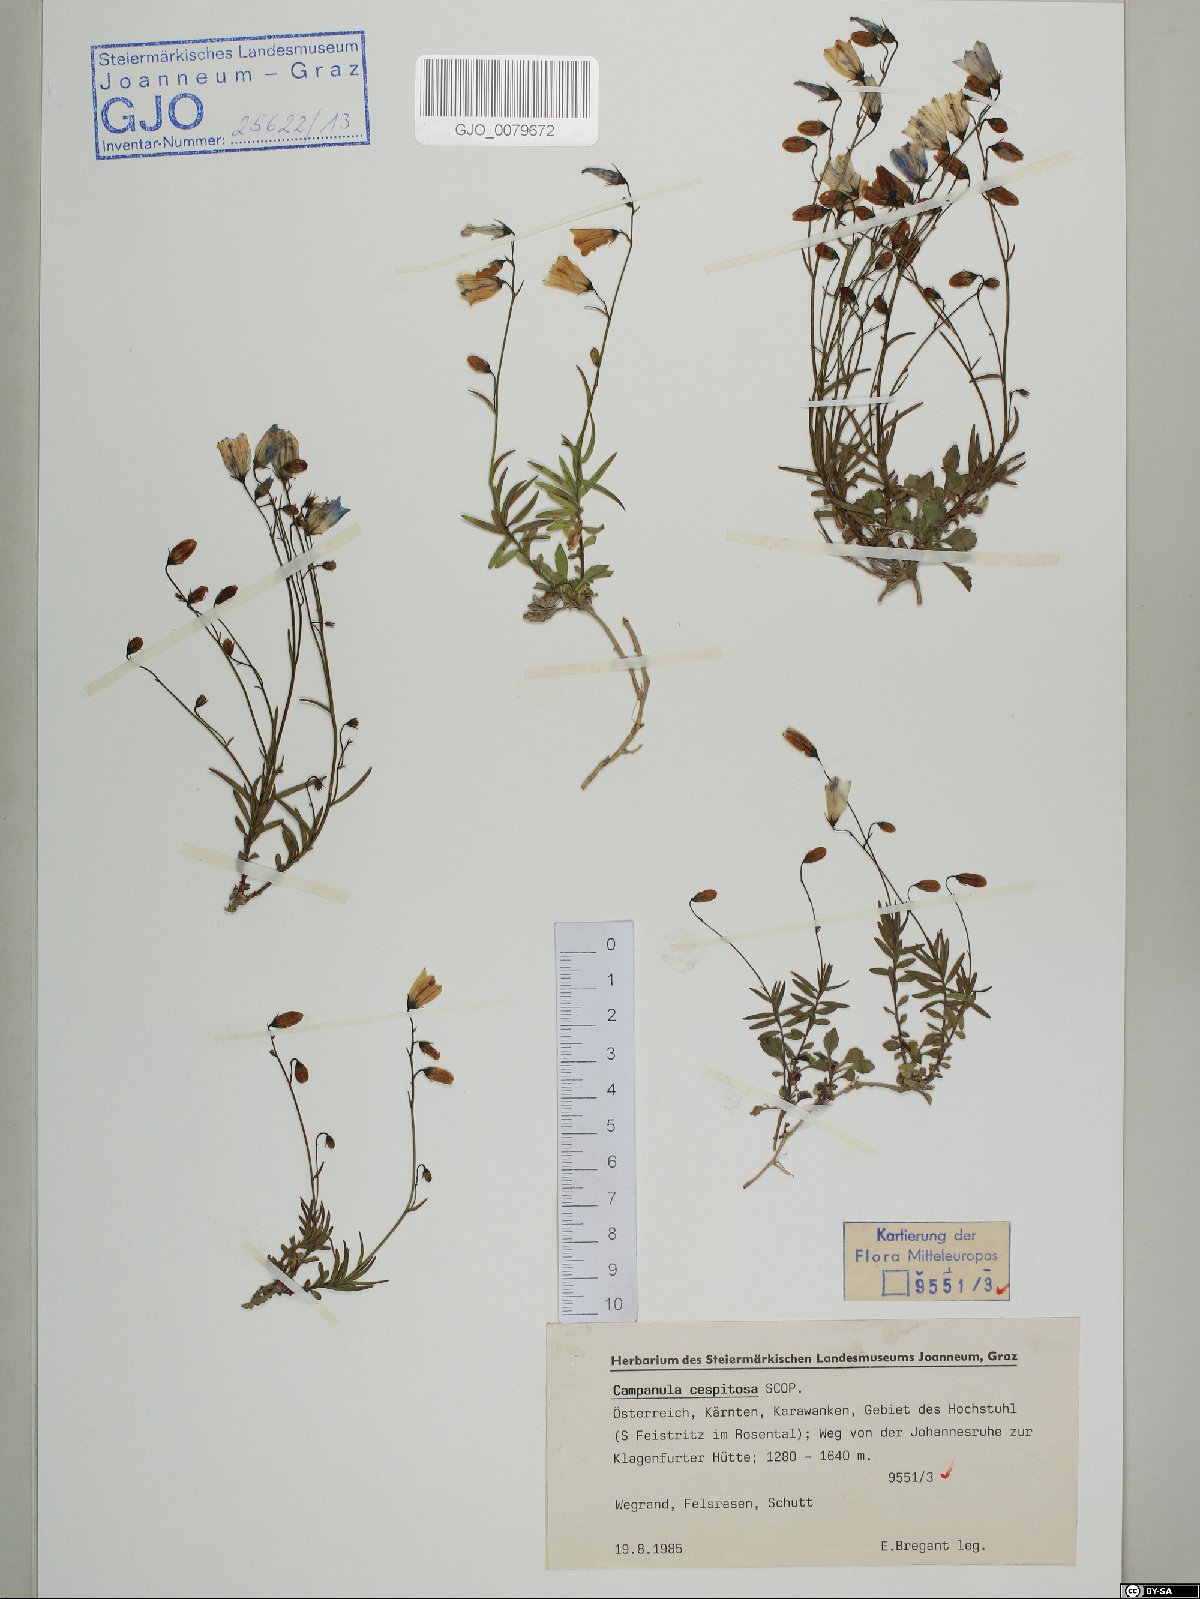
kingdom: Plantae
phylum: Tracheophyta
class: Magnoliopsida
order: Asterales
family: Campanulaceae
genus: Campanula
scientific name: Campanula cespitosa
